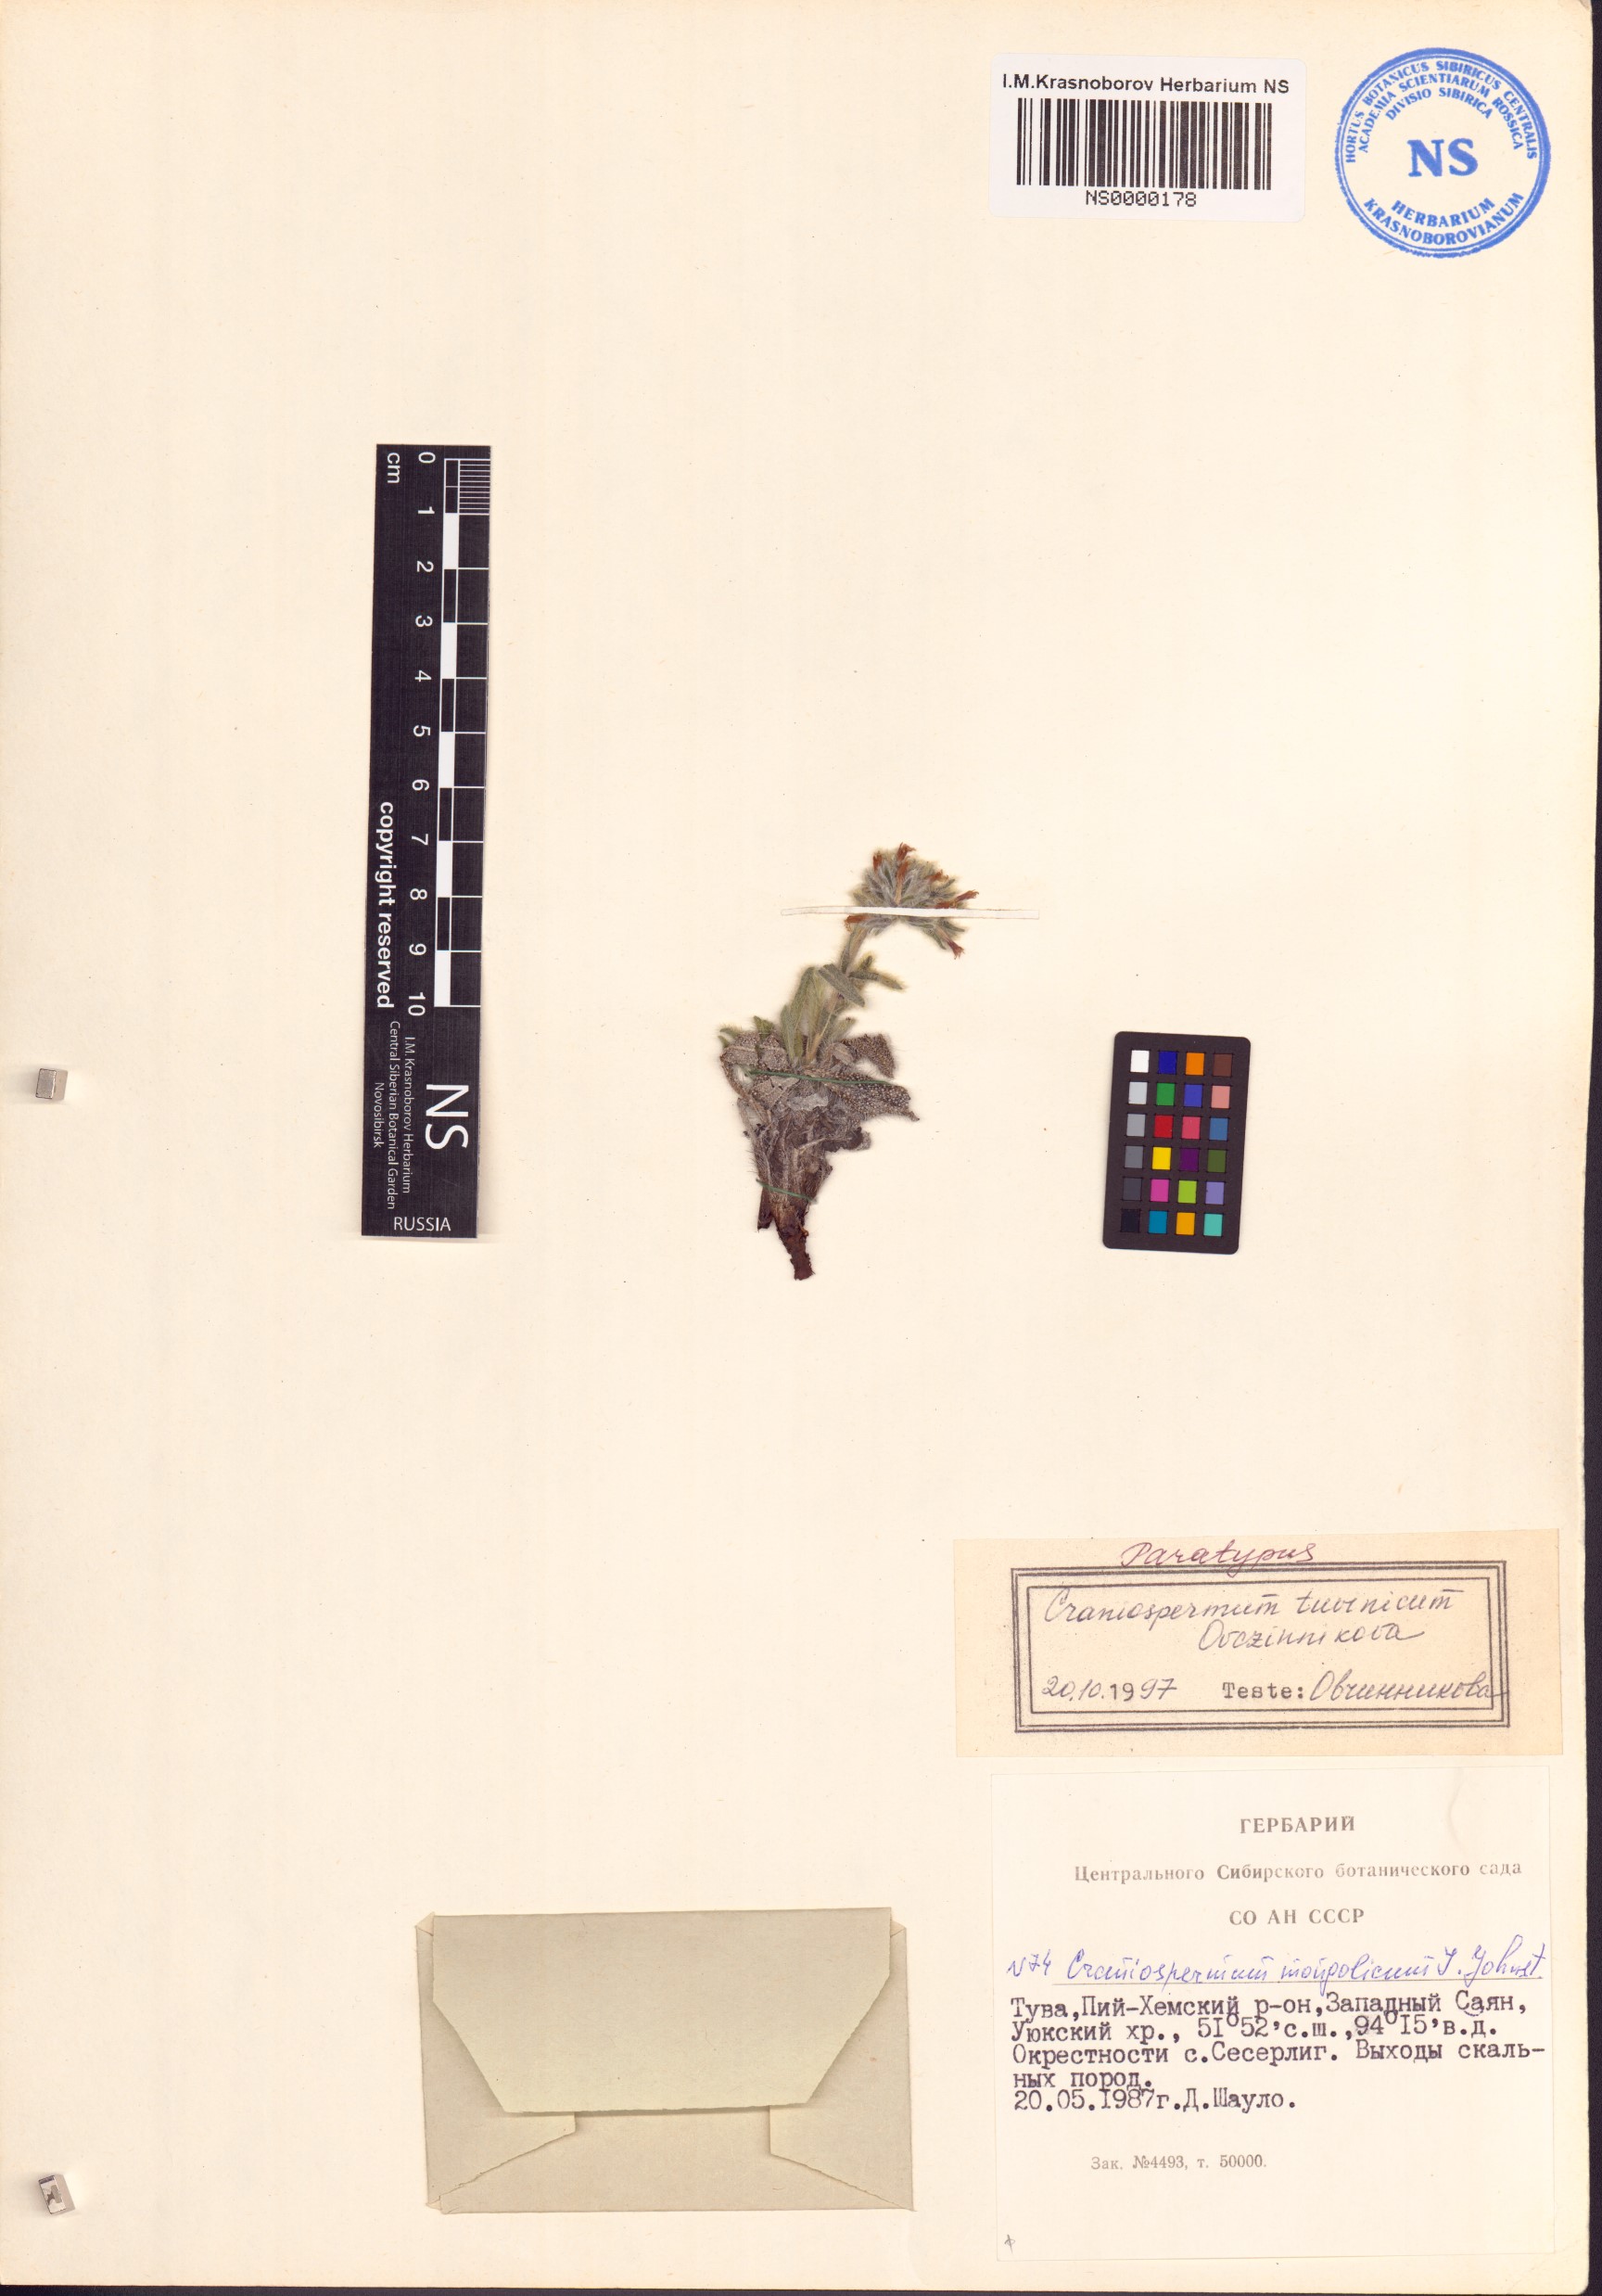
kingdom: Plantae
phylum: Tracheophyta
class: Magnoliopsida
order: Boraginales
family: Boraginaceae
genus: Craniospermum
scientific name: Craniospermum tuvinicum
